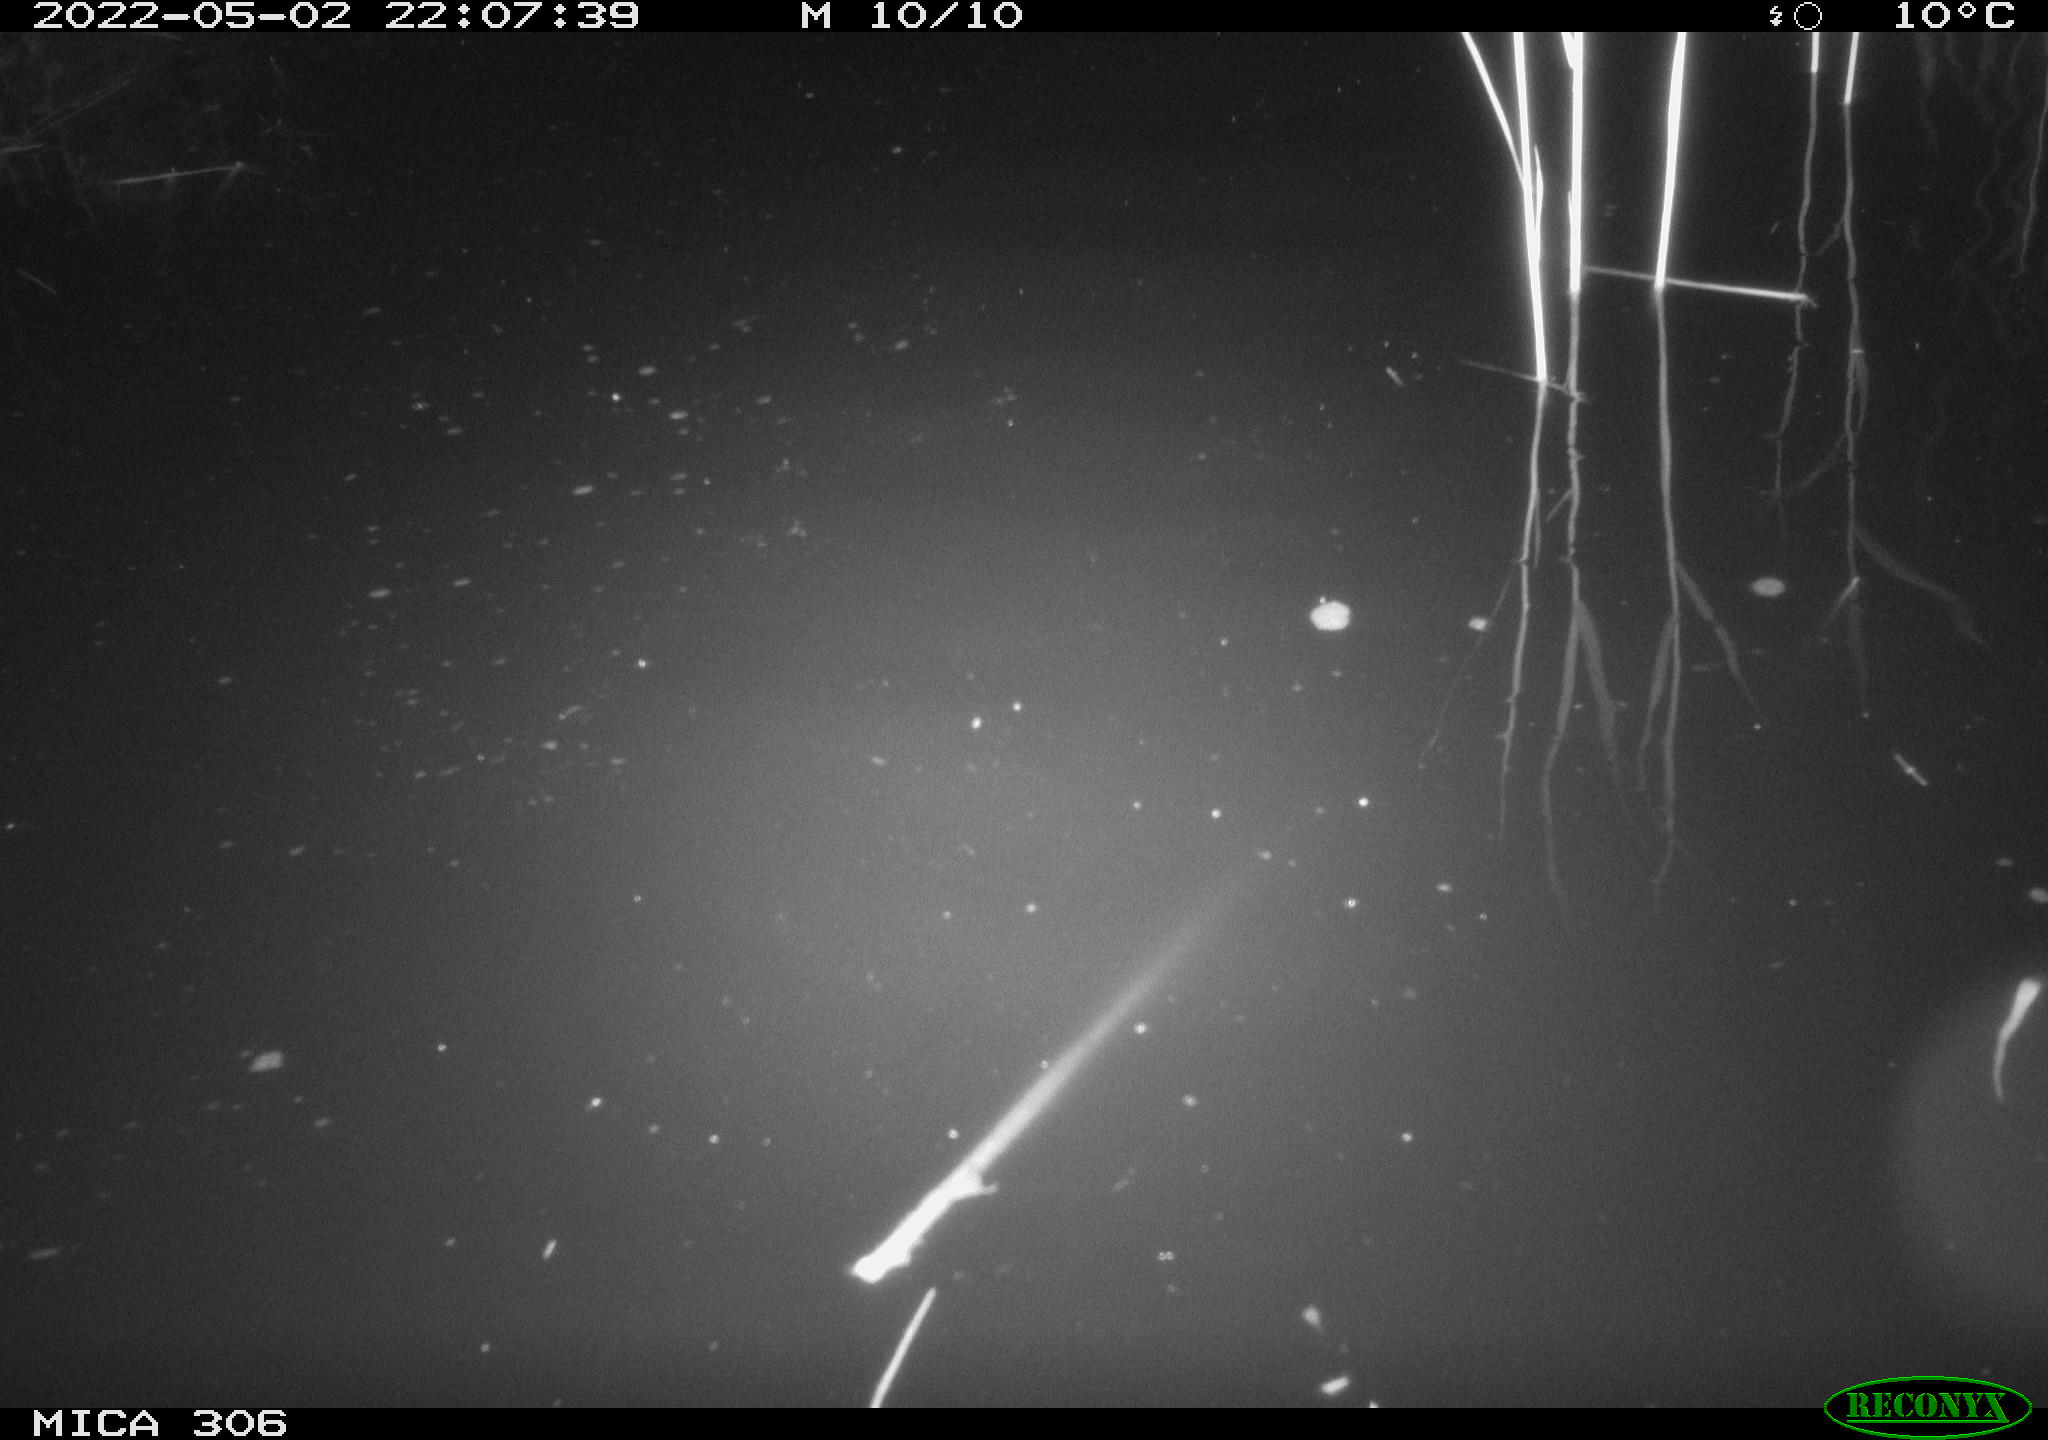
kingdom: Animalia
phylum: Chordata
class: Mammalia
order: Rodentia
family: Cricetidae
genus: Ondatra
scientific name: Ondatra zibethicus
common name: Muskrat
